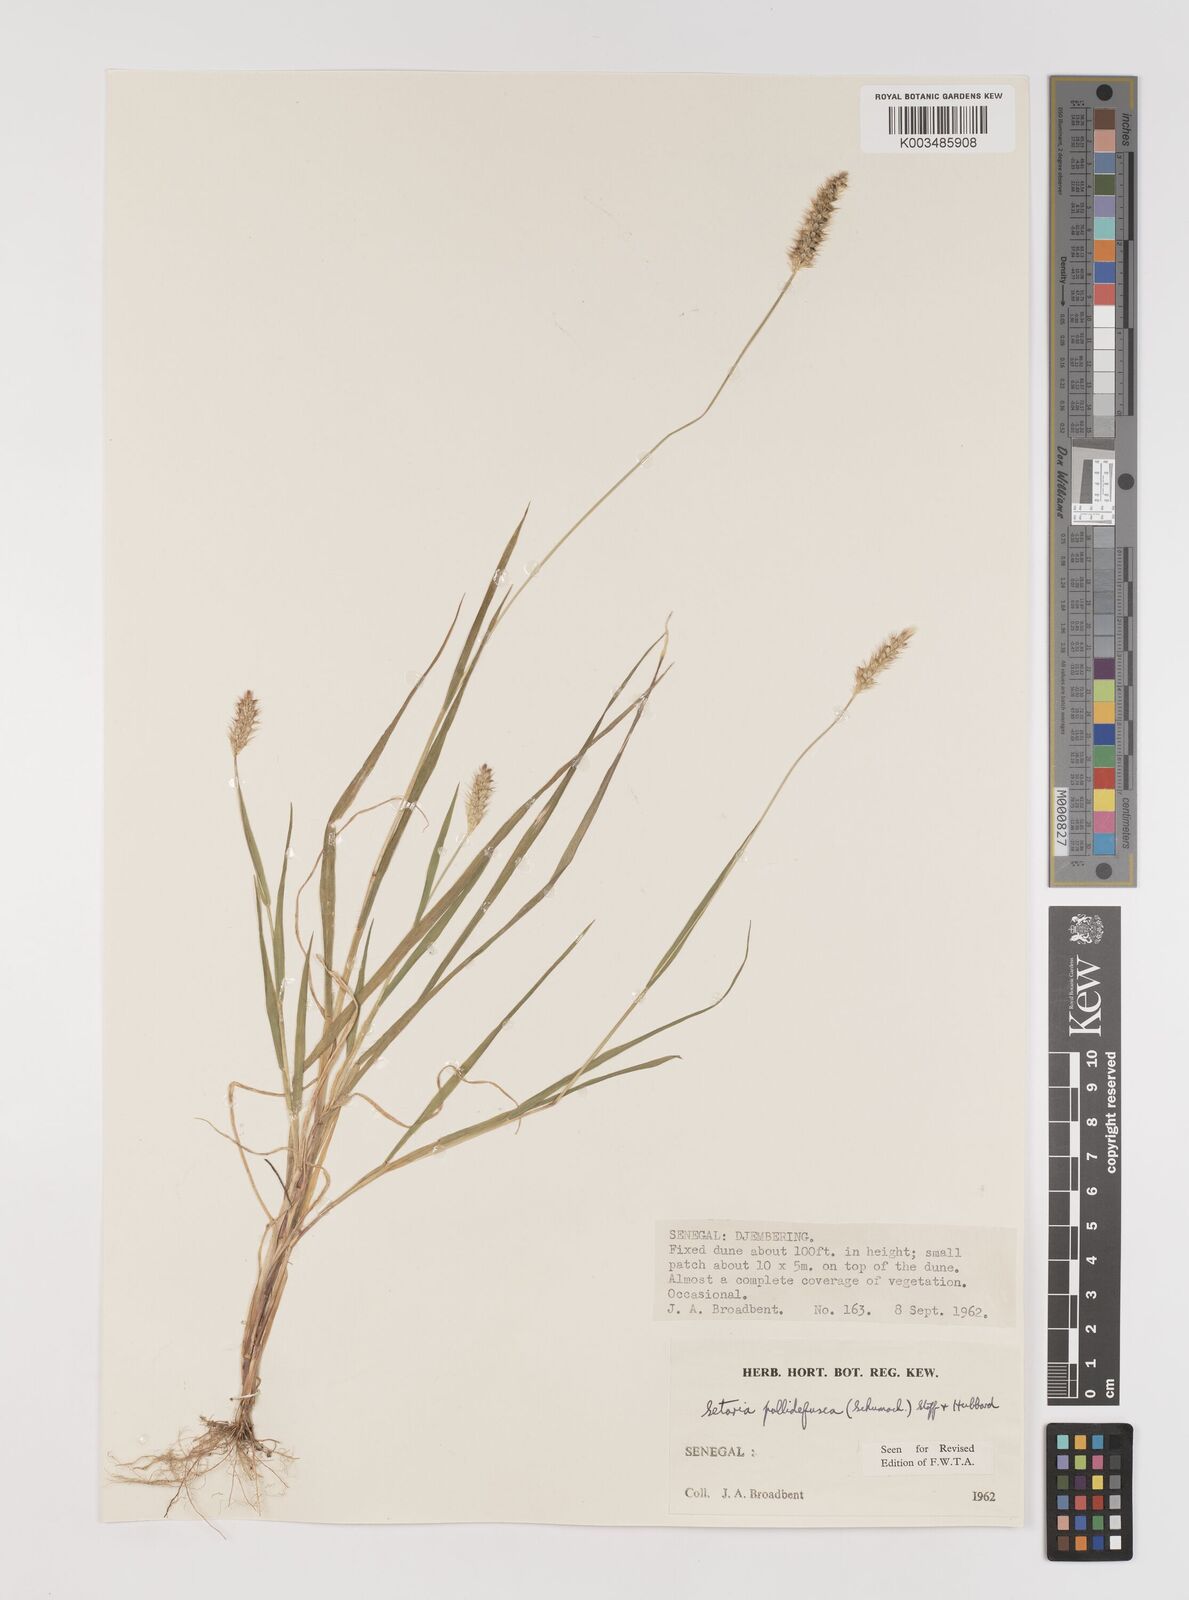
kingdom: Plantae
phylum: Tracheophyta
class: Liliopsida
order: Poales
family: Poaceae
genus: Setaria
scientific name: Setaria pumila
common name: Yellow bristle-grass
